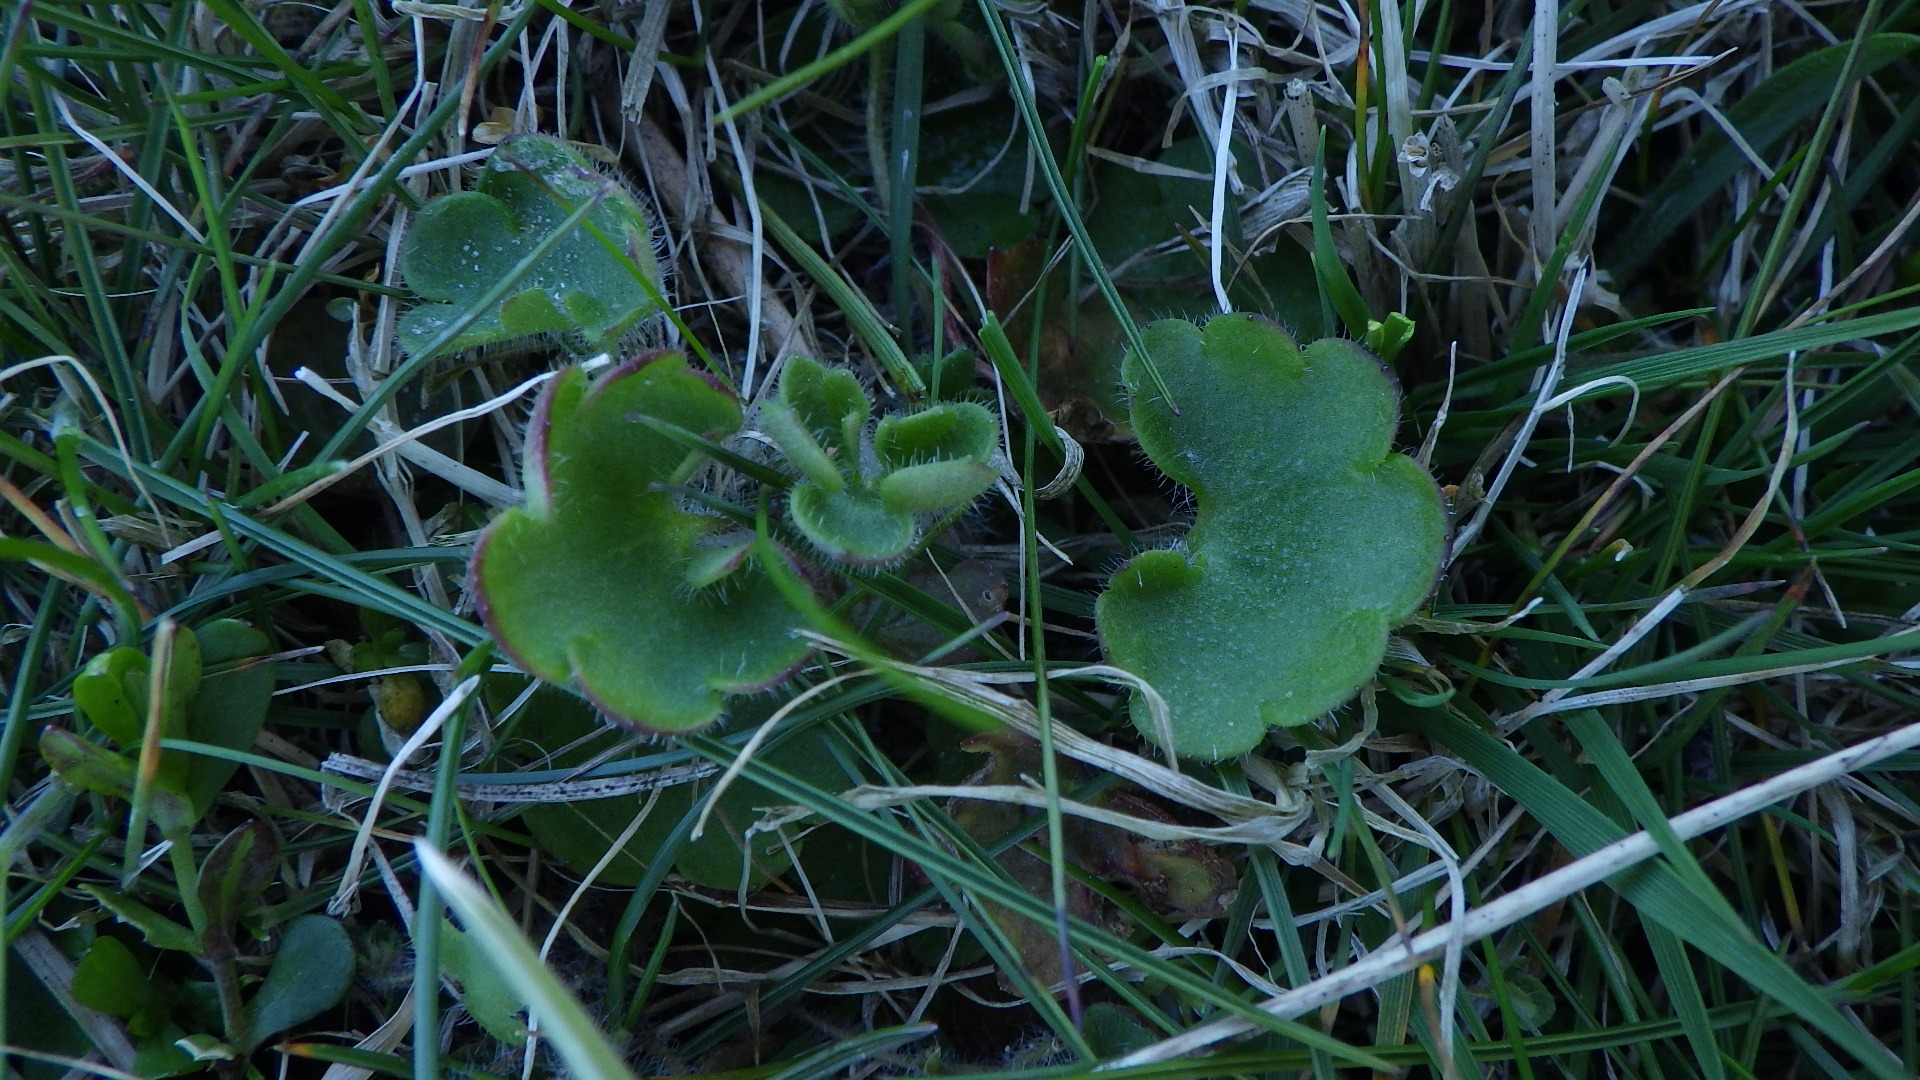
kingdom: Plantae
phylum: Tracheophyta
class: Magnoliopsida
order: Saxifragales
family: Saxifragaceae
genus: Saxifraga
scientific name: Saxifraga granulata
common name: Kornet stenbræk
